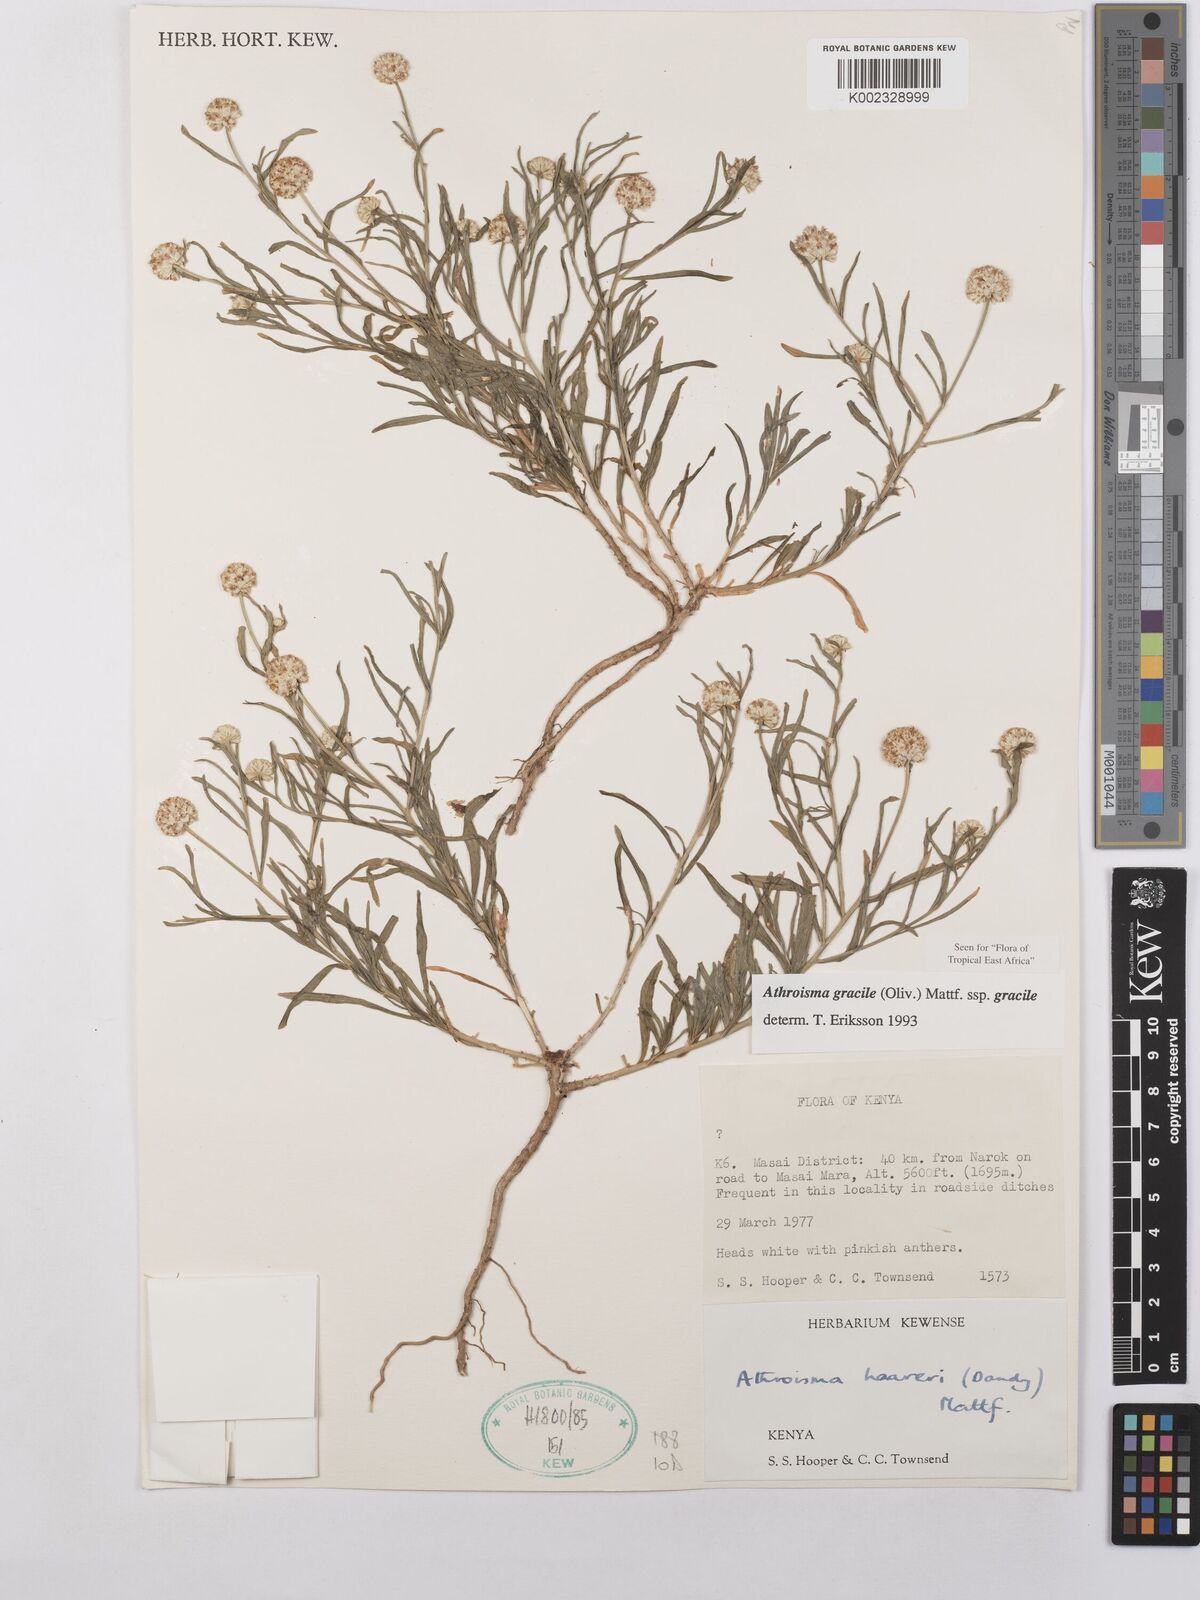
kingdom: Plantae
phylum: Tracheophyta
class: Magnoliopsida
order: Asterales
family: Asteraceae
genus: Athroisma
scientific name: Athroisma gracile
